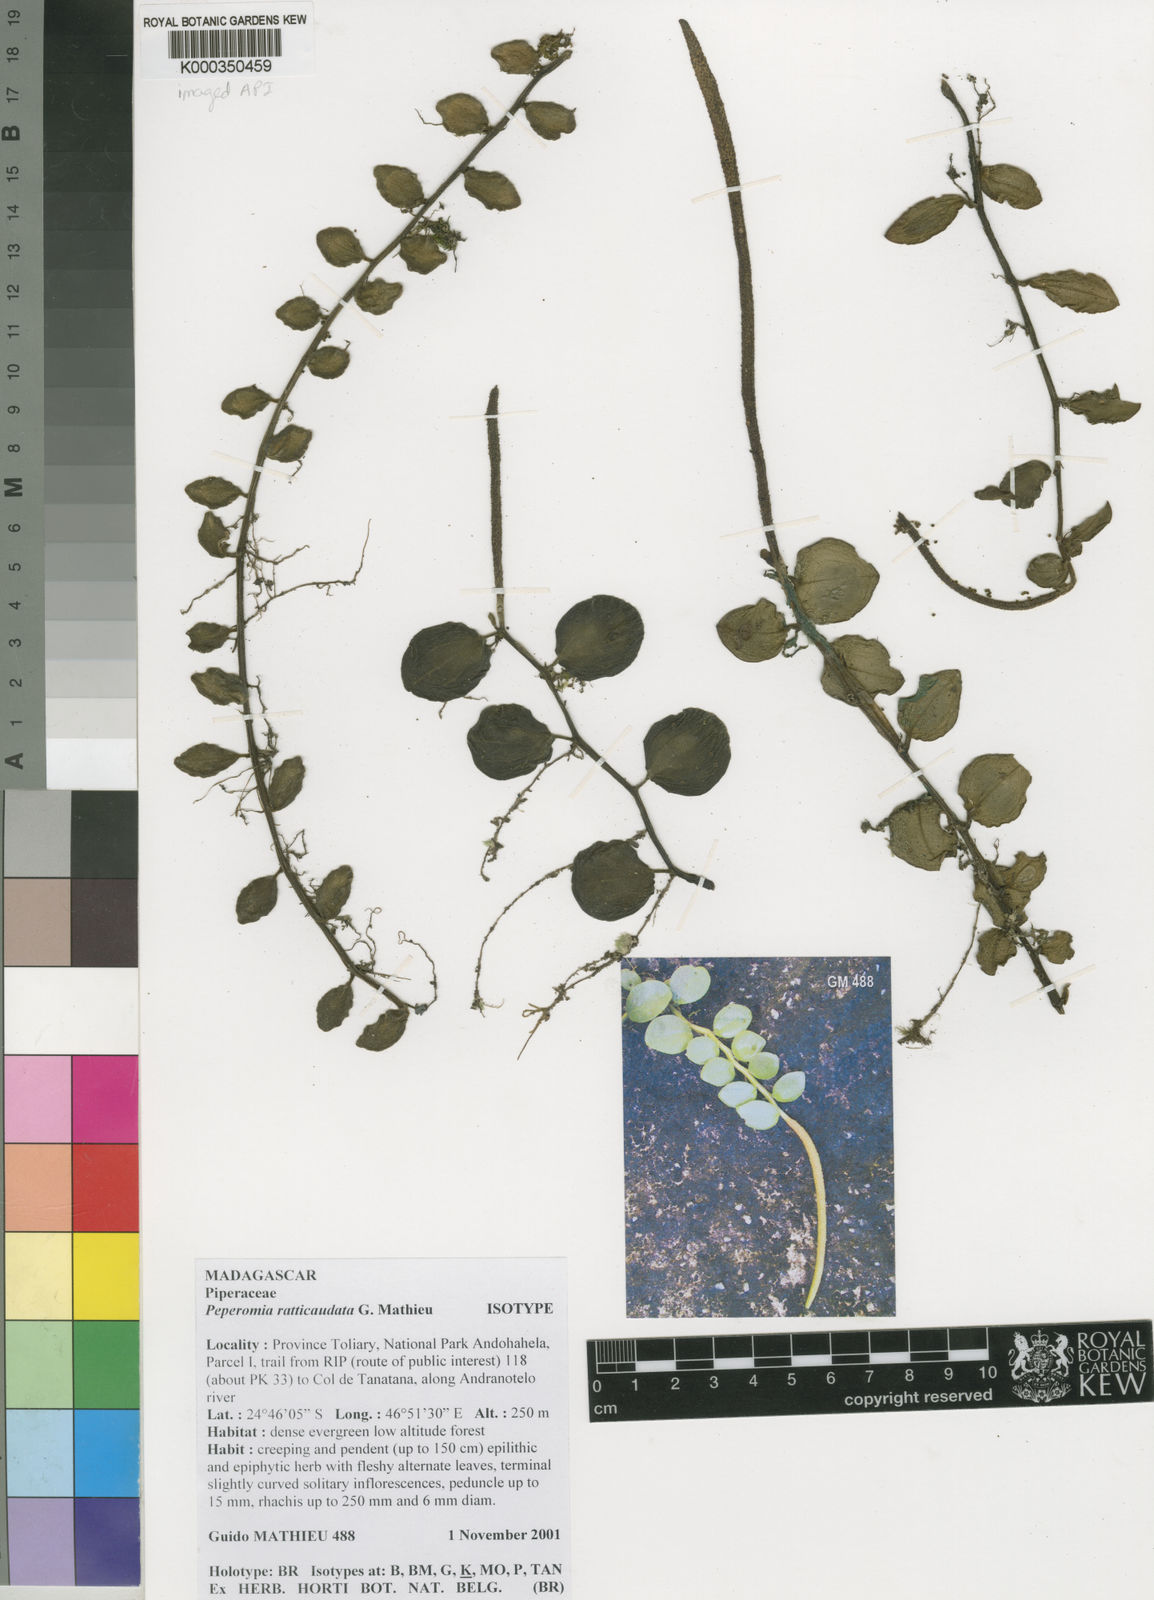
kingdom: Plantae
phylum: Tracheophyta
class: Magnoliopsida
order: Piperales
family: Piperaceae
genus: Peperomia
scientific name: Peperomia ratticaudata
